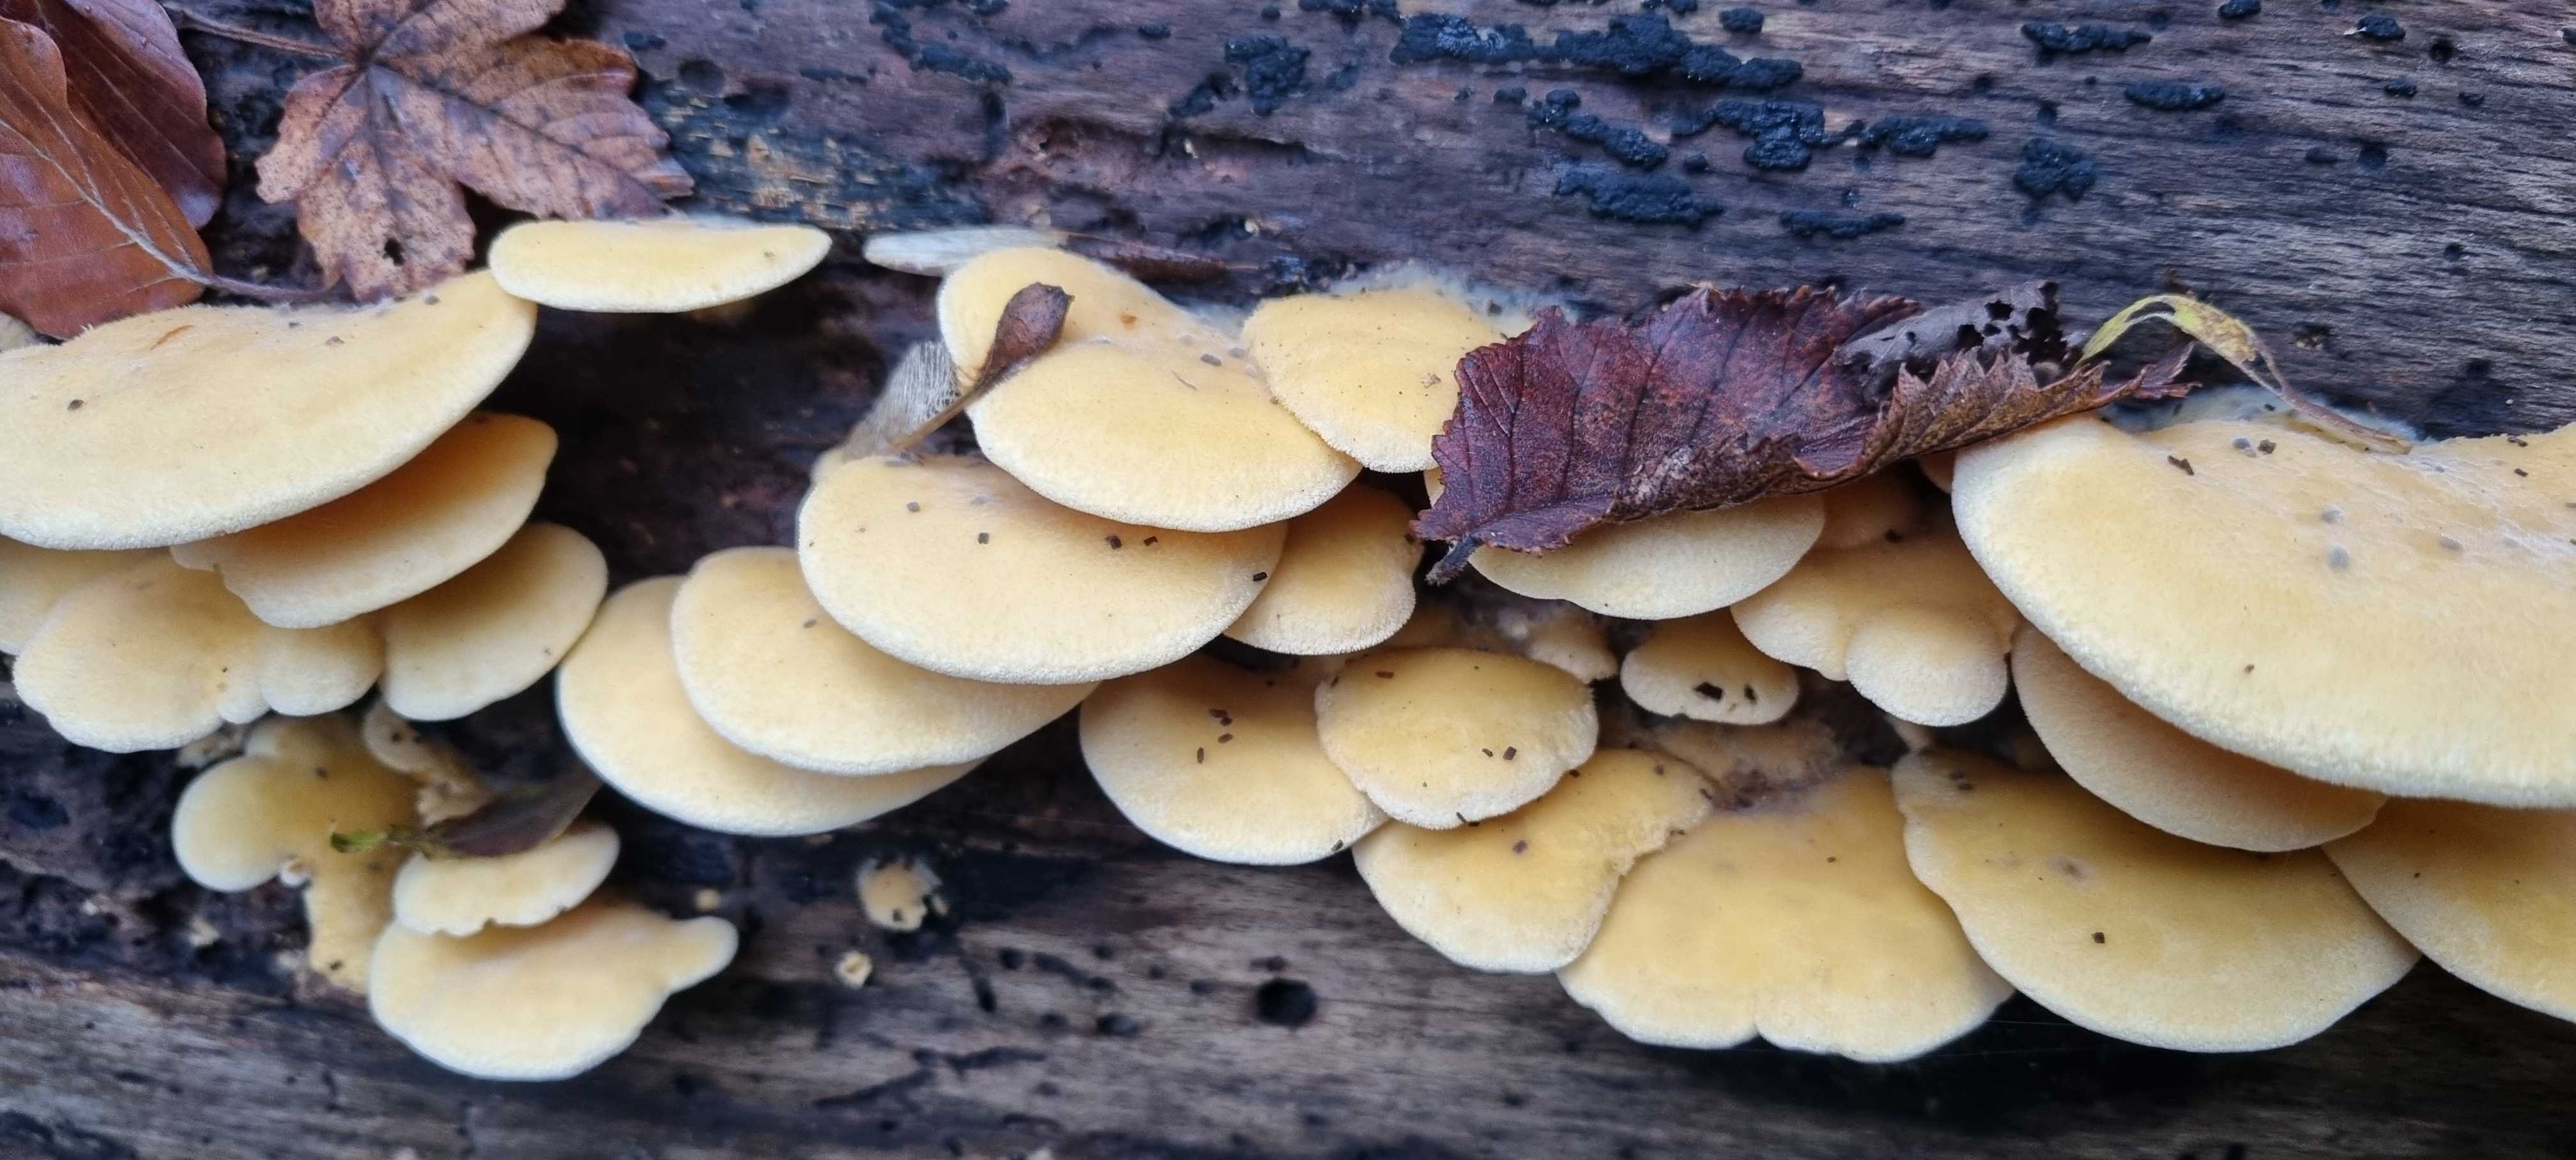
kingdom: Fungi
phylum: Basidiomycota
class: Agaricomycetes
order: Agaricales
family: Phyllotopsidaceae
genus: Phyllotopsis
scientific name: Phyllotopsis nidulans
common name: okkerblad
